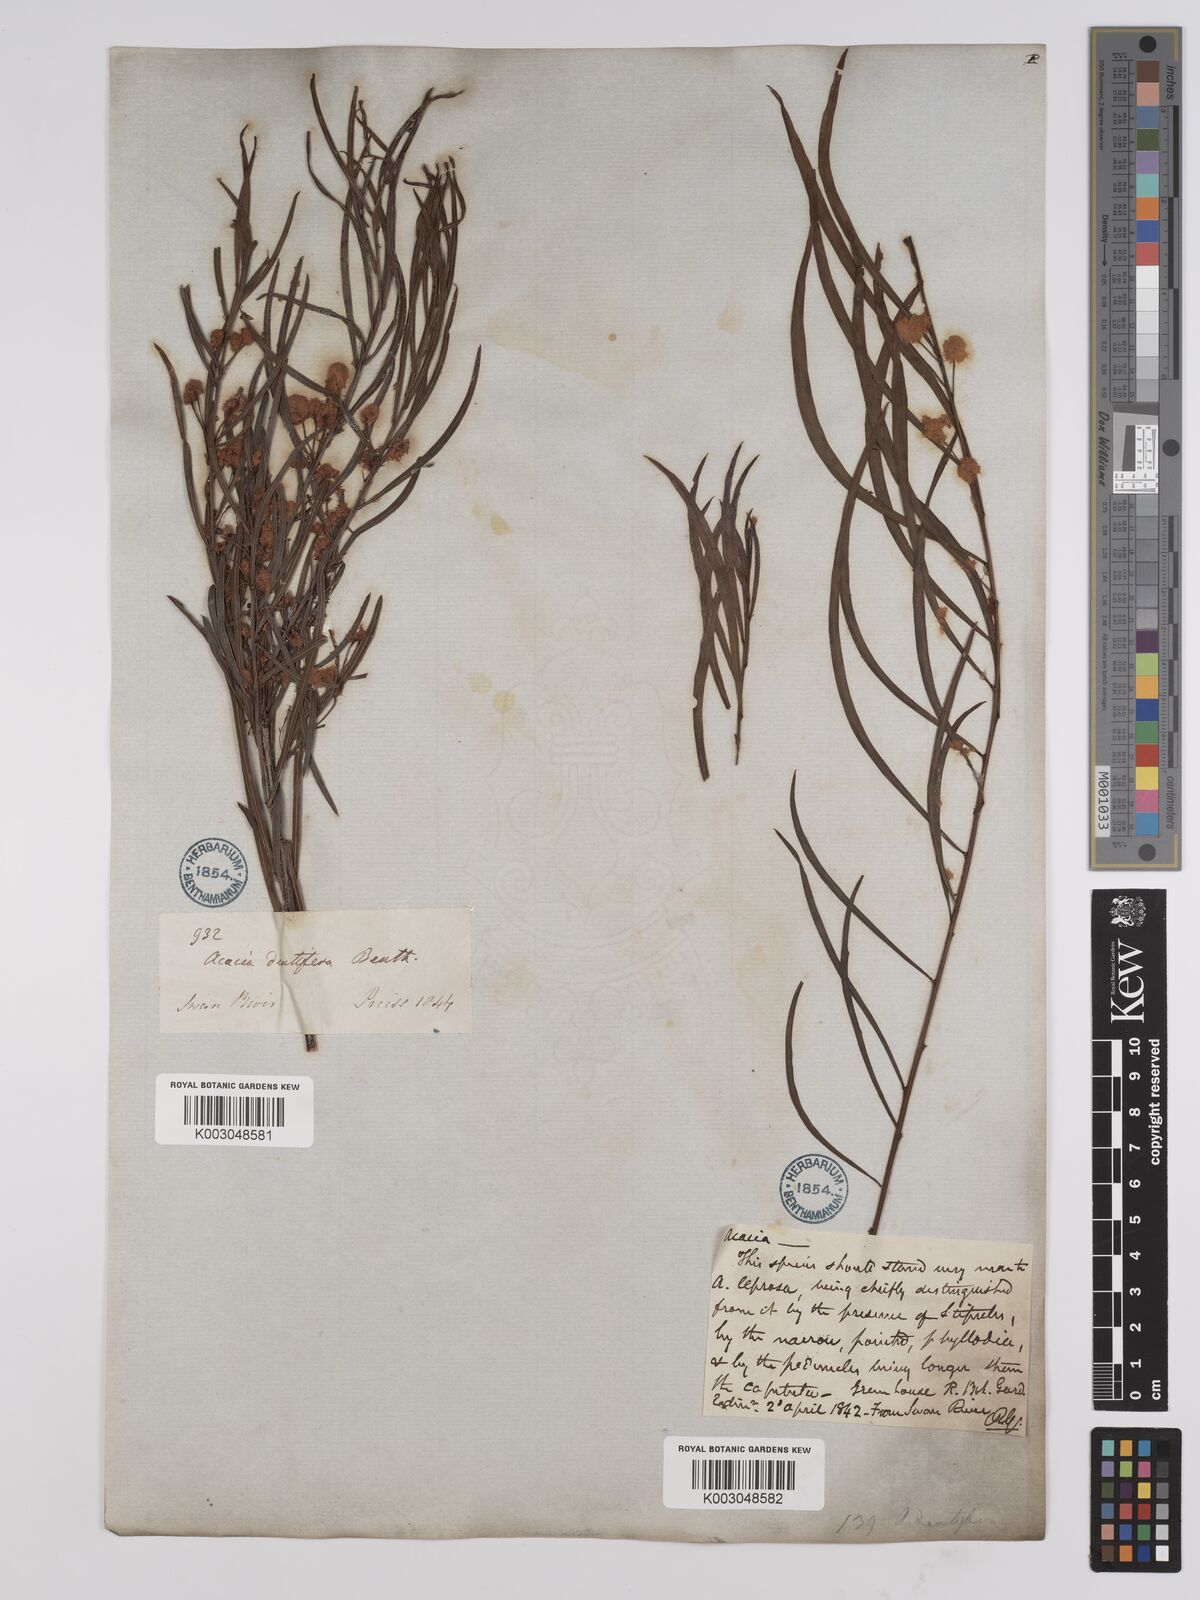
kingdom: Plantae
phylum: Tracheophyta
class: Magnoliopsida
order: Fabales
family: Fabaceae
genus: Acacia
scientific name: Acacia dentifera
